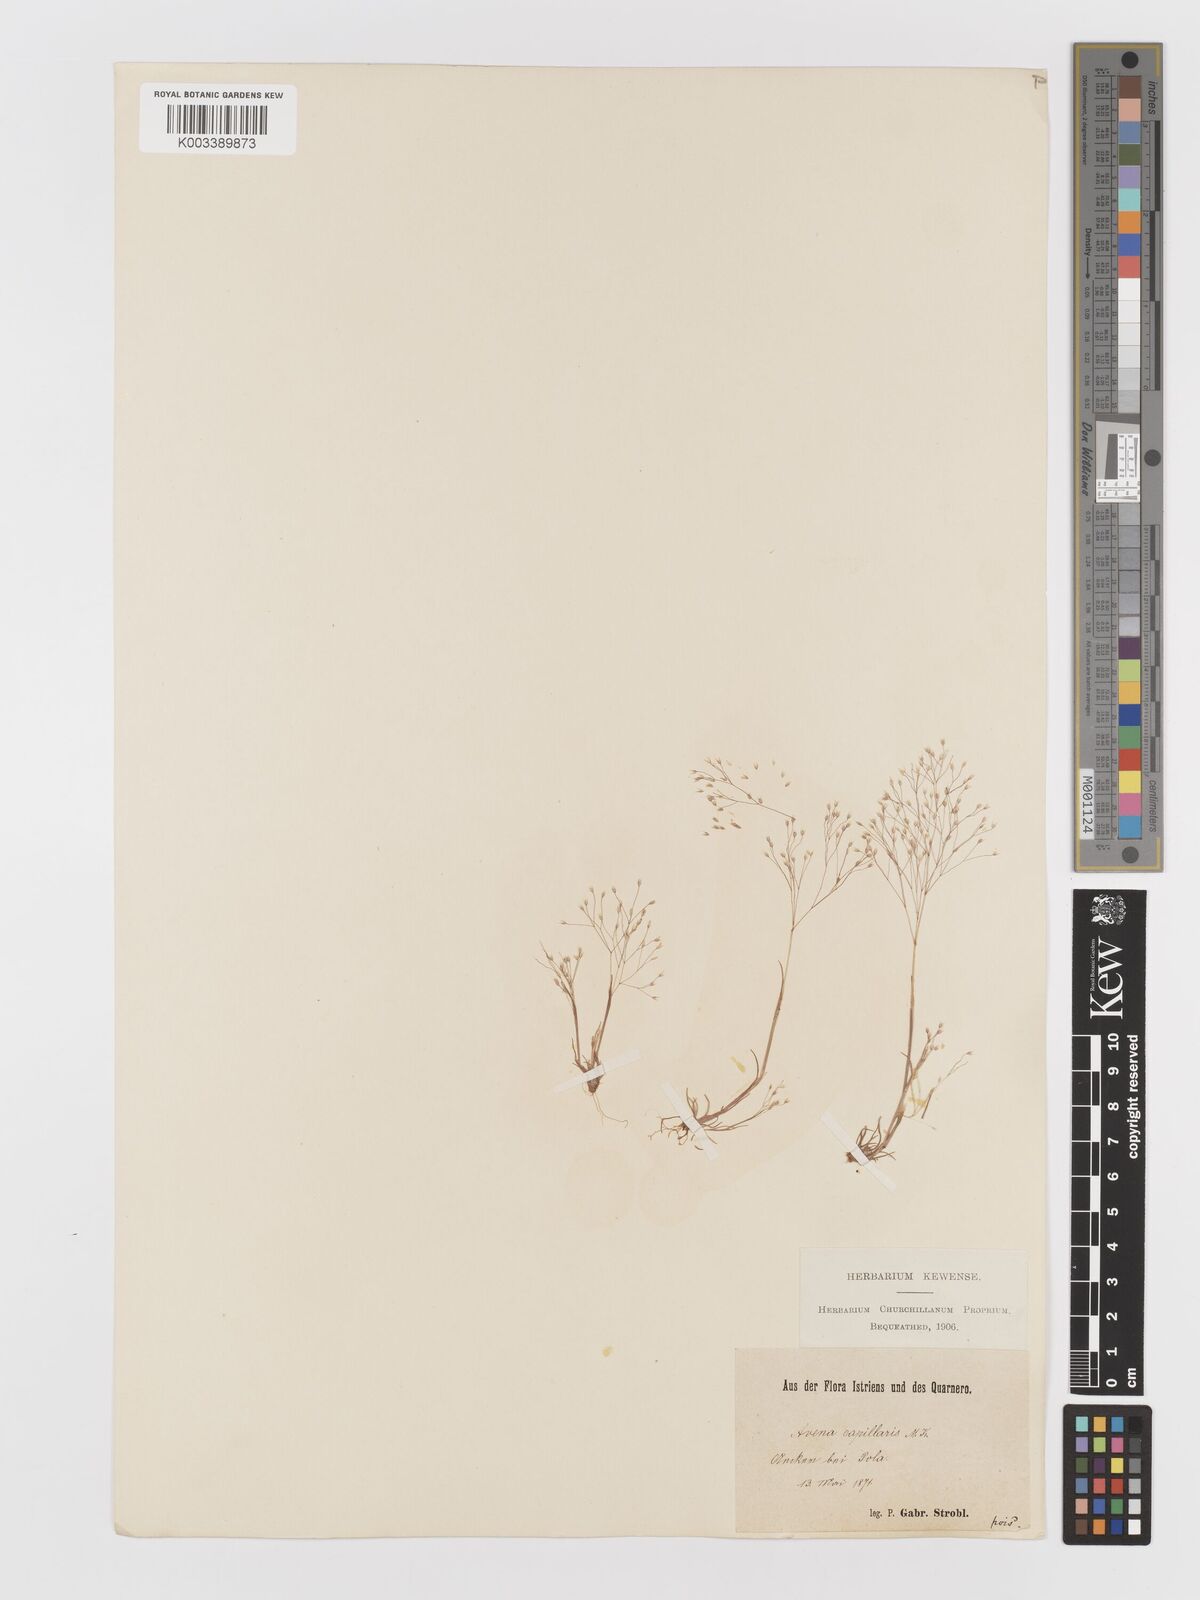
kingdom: Plantae
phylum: Tracheophyta
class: Liliopsida
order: Poales
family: Poaceae
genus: Aira
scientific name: Aira elegans
